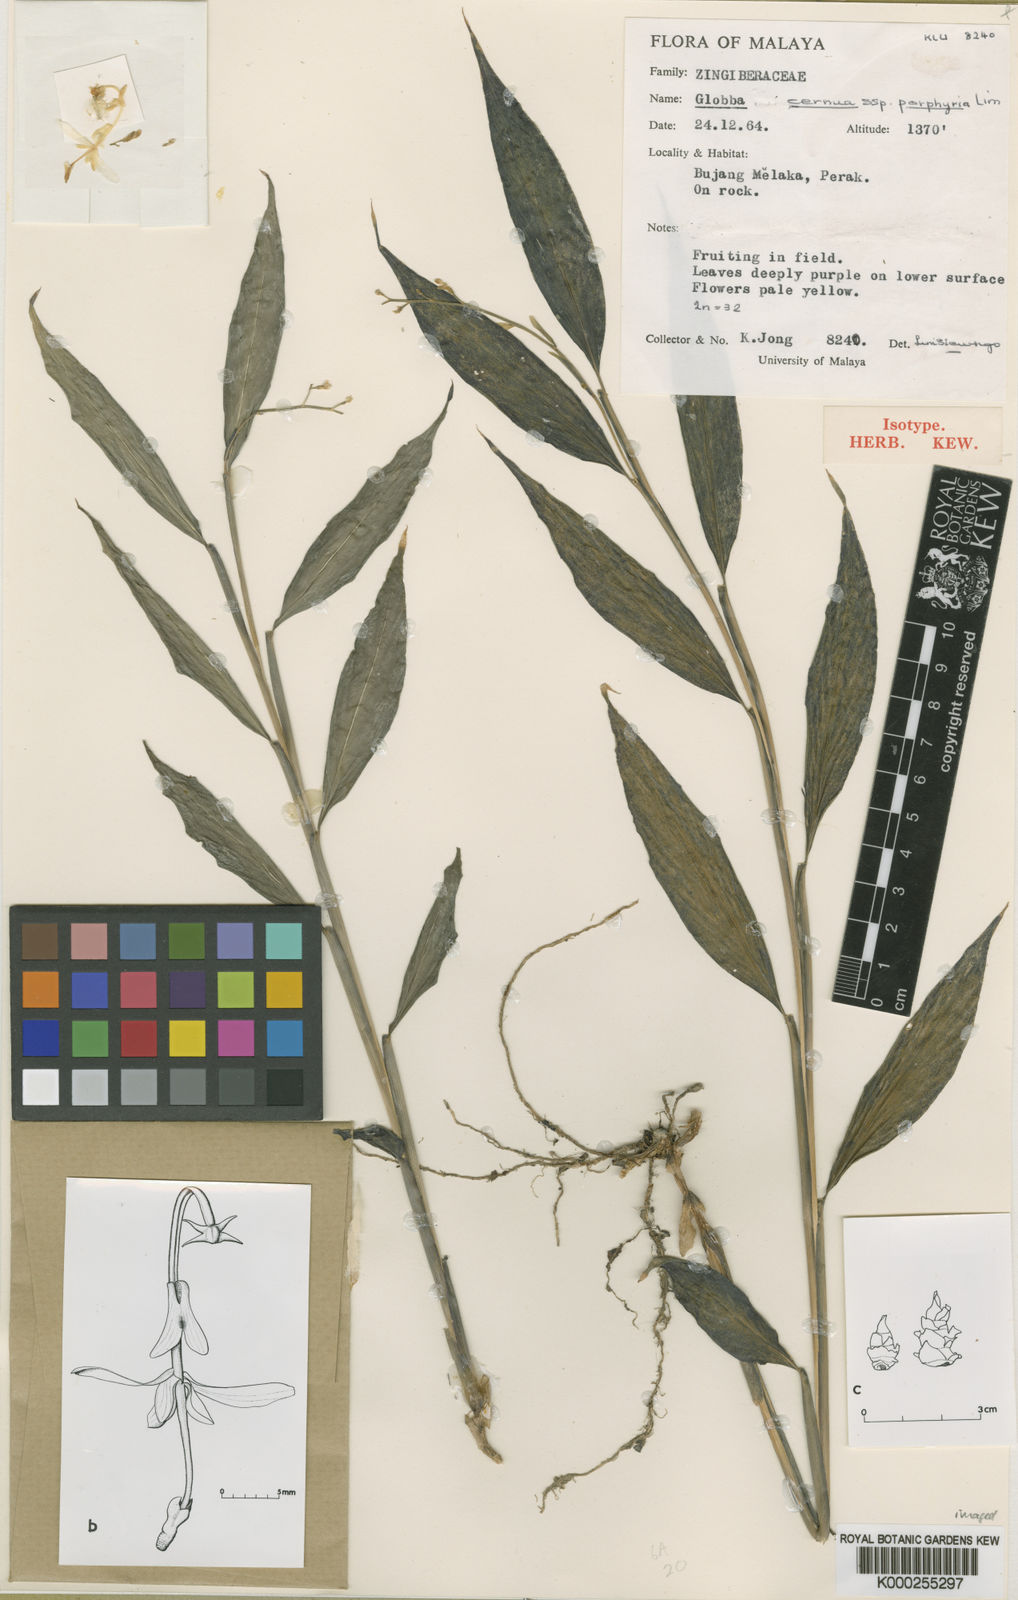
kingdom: Plantae
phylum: Tracheophyta
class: Liliopsida
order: Zingiberales
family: Zingiberaceae
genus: Globba
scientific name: Globba cernua
